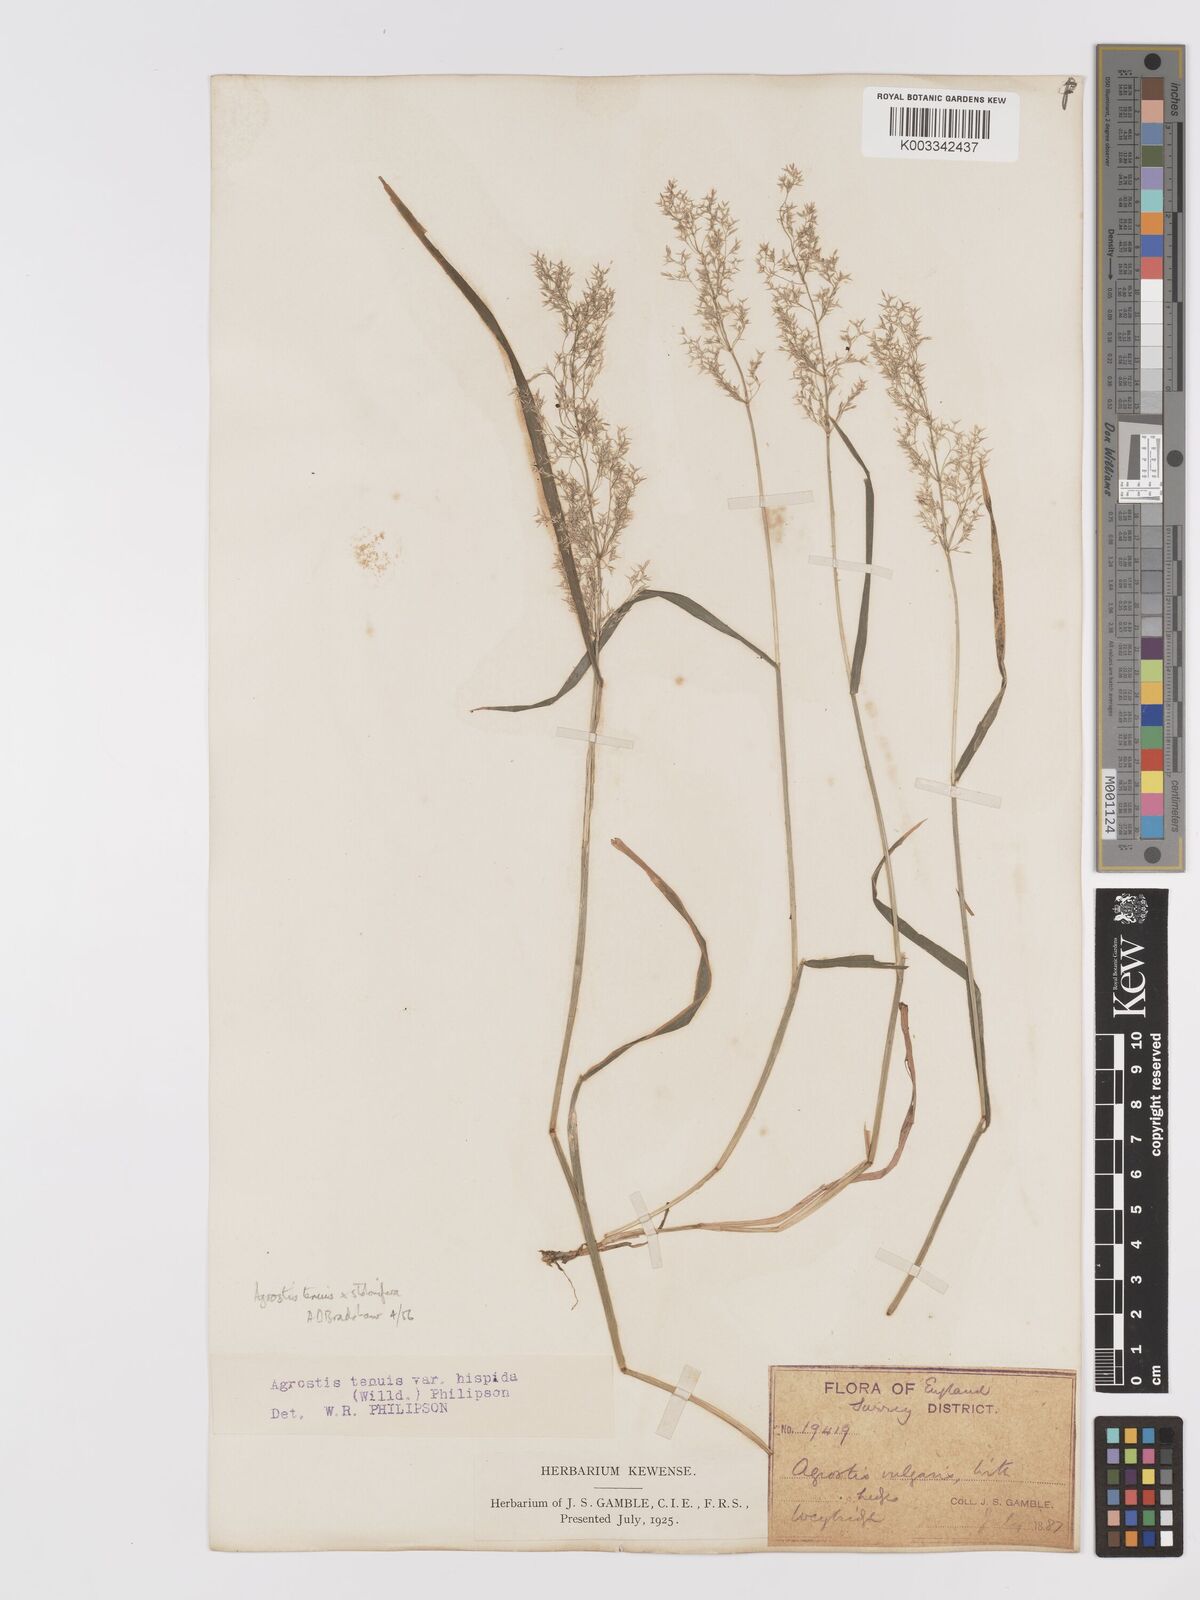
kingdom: Plantae
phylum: Tracheophyta
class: Liliopsida
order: Poales
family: Poaceae
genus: Agrostis
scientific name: Agrostis capillaris
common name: Colonial bentgrass
